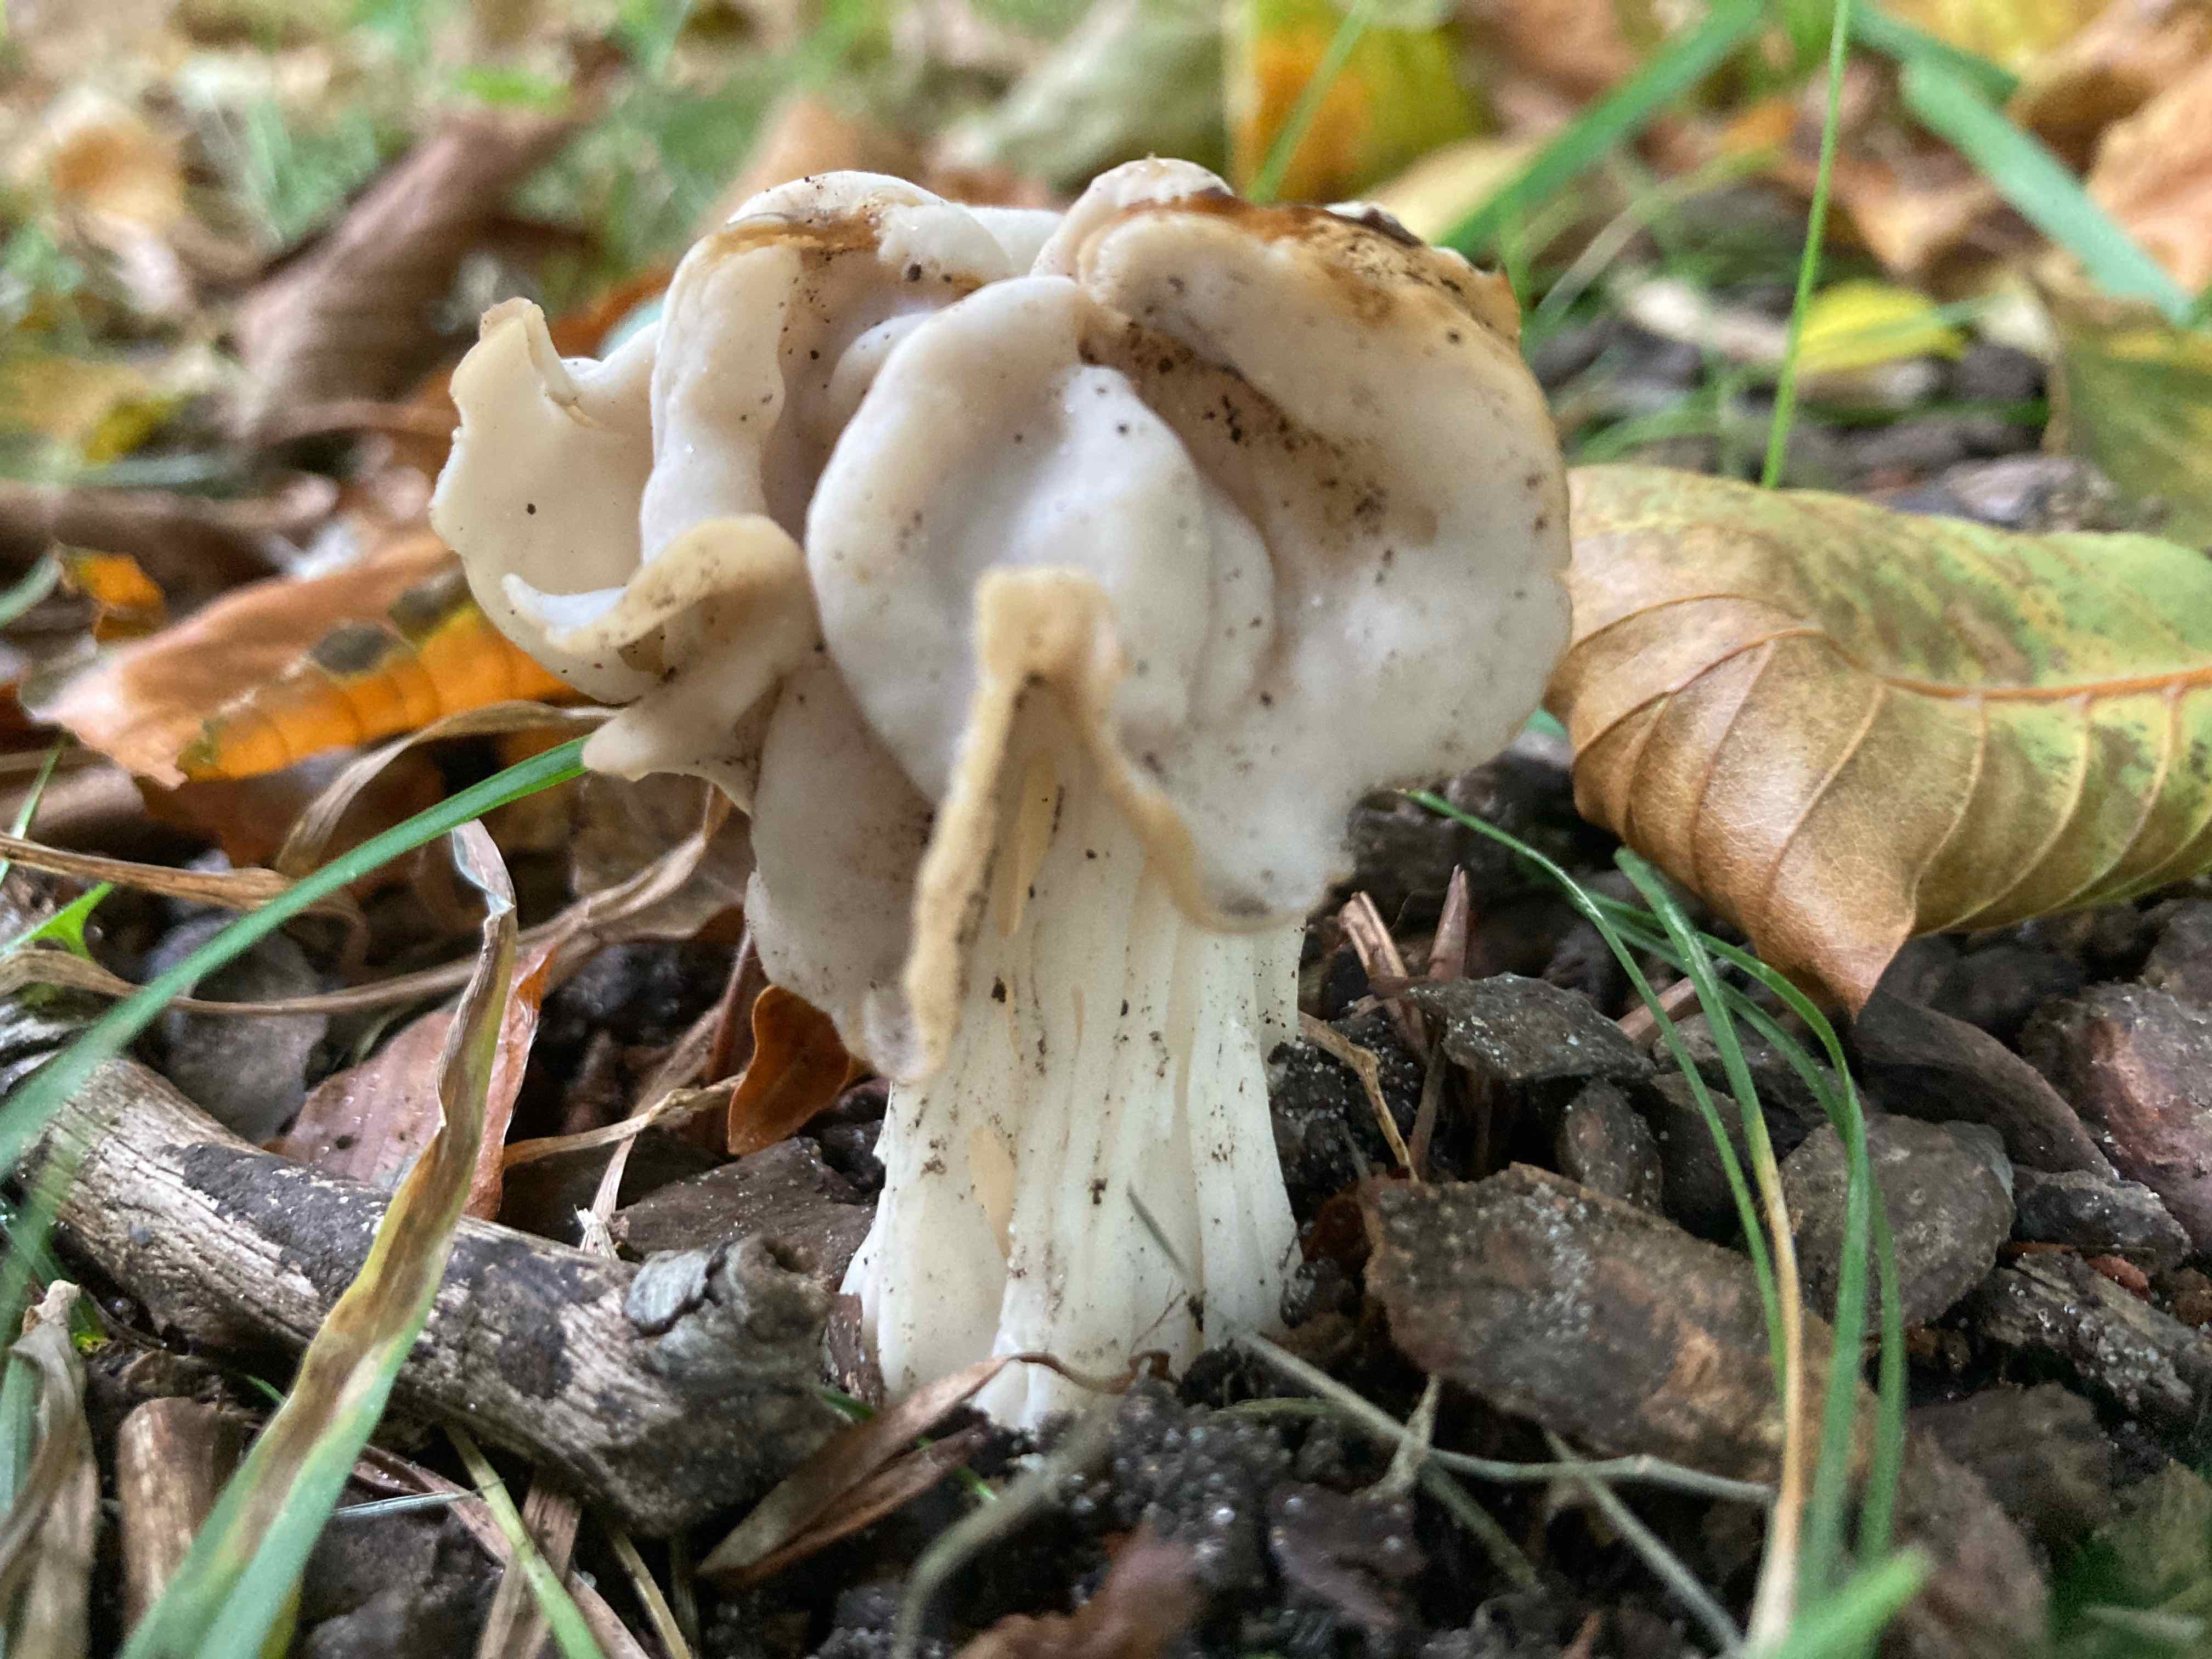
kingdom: Fungi
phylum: Ascomycota
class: Pezizomycetes
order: Pezizales
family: Helvellaceae
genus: Helvella
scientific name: Helvella crispa
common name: kruset foldhat
